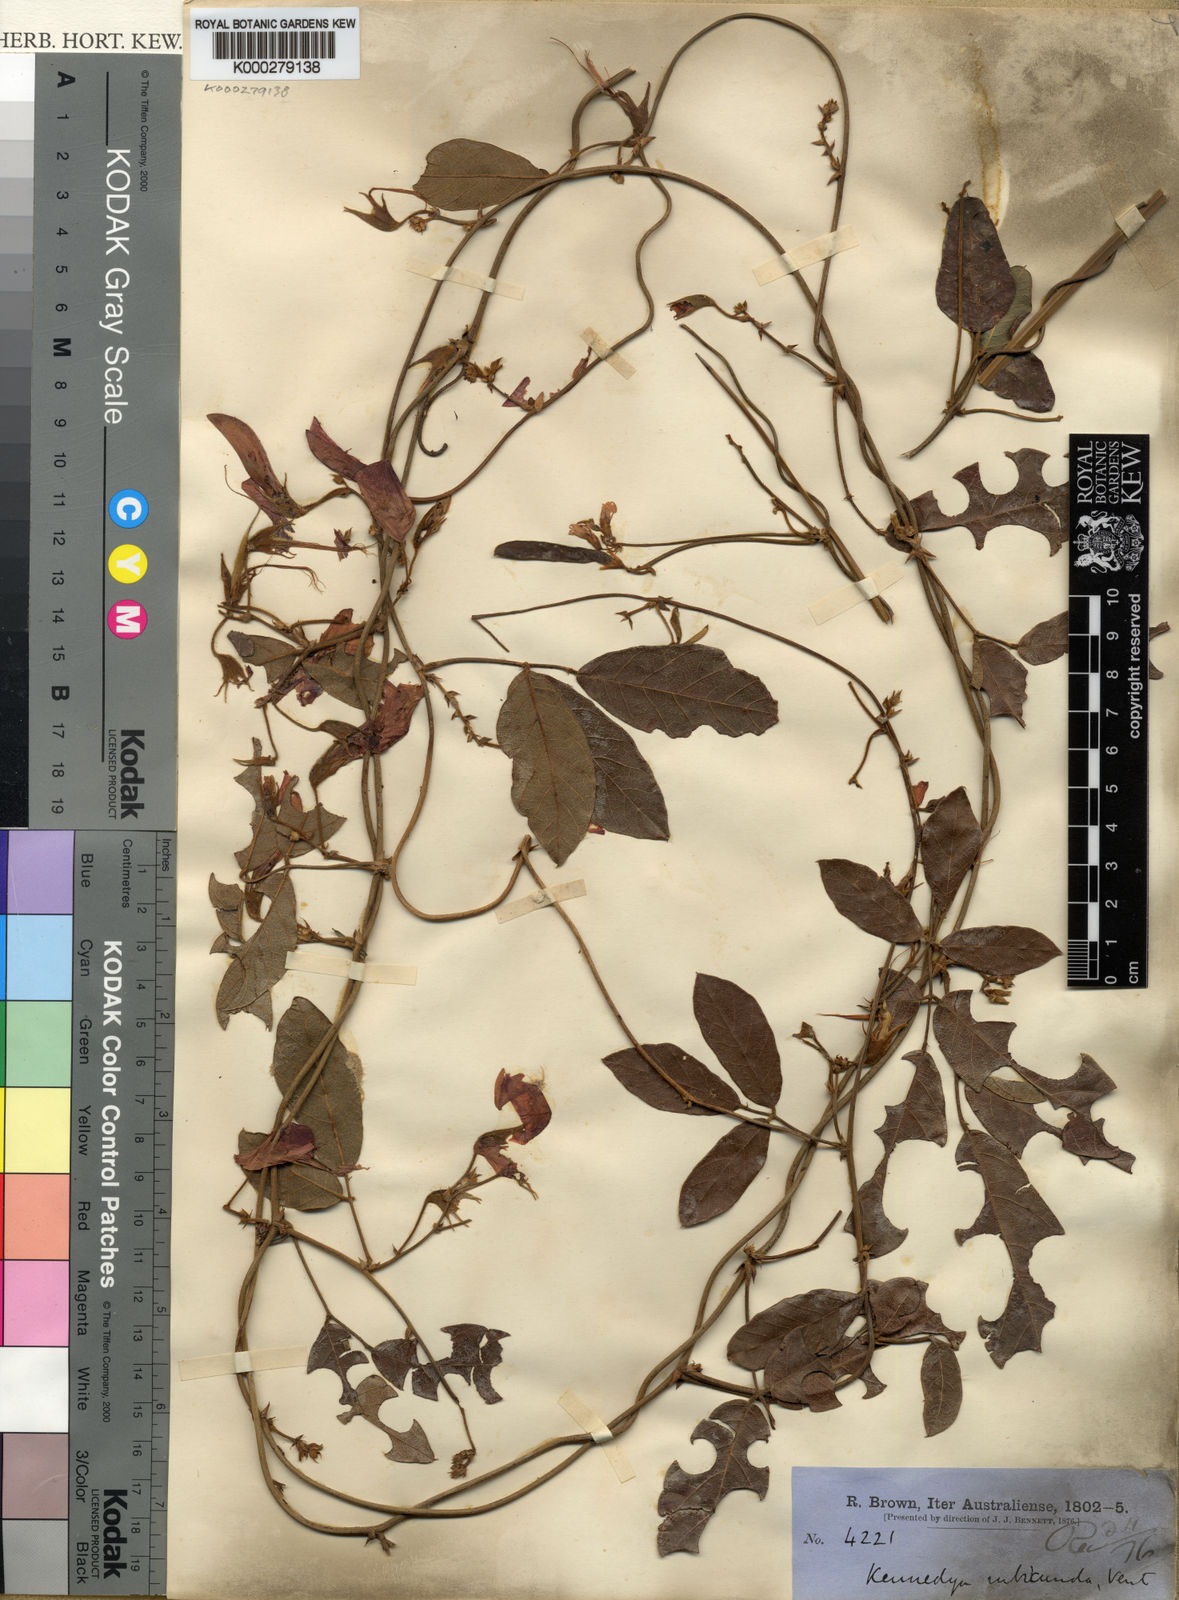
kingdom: Plantae
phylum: Tracheophyta
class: Magnoliopsida
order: Fabales
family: Fabaceae
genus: Kennedia
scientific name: Kennedia rubicunda
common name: Red kennedy-pea
